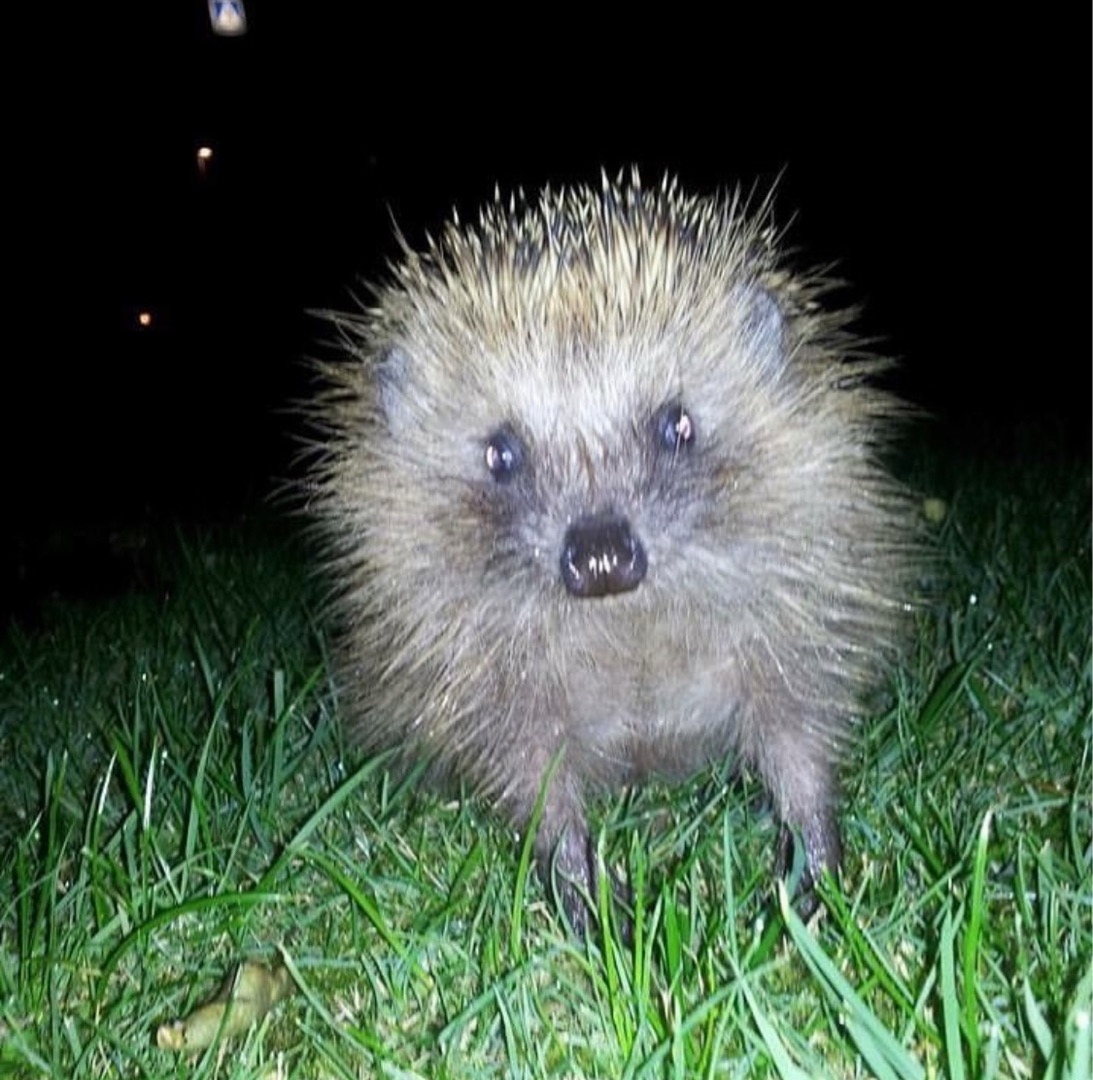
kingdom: Animalia
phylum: Chordata
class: Mammalia
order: Erinaceomorpha
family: Erinaceidae
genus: Erinaceus
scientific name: Erinaceus europaeus
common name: Pindsvin
